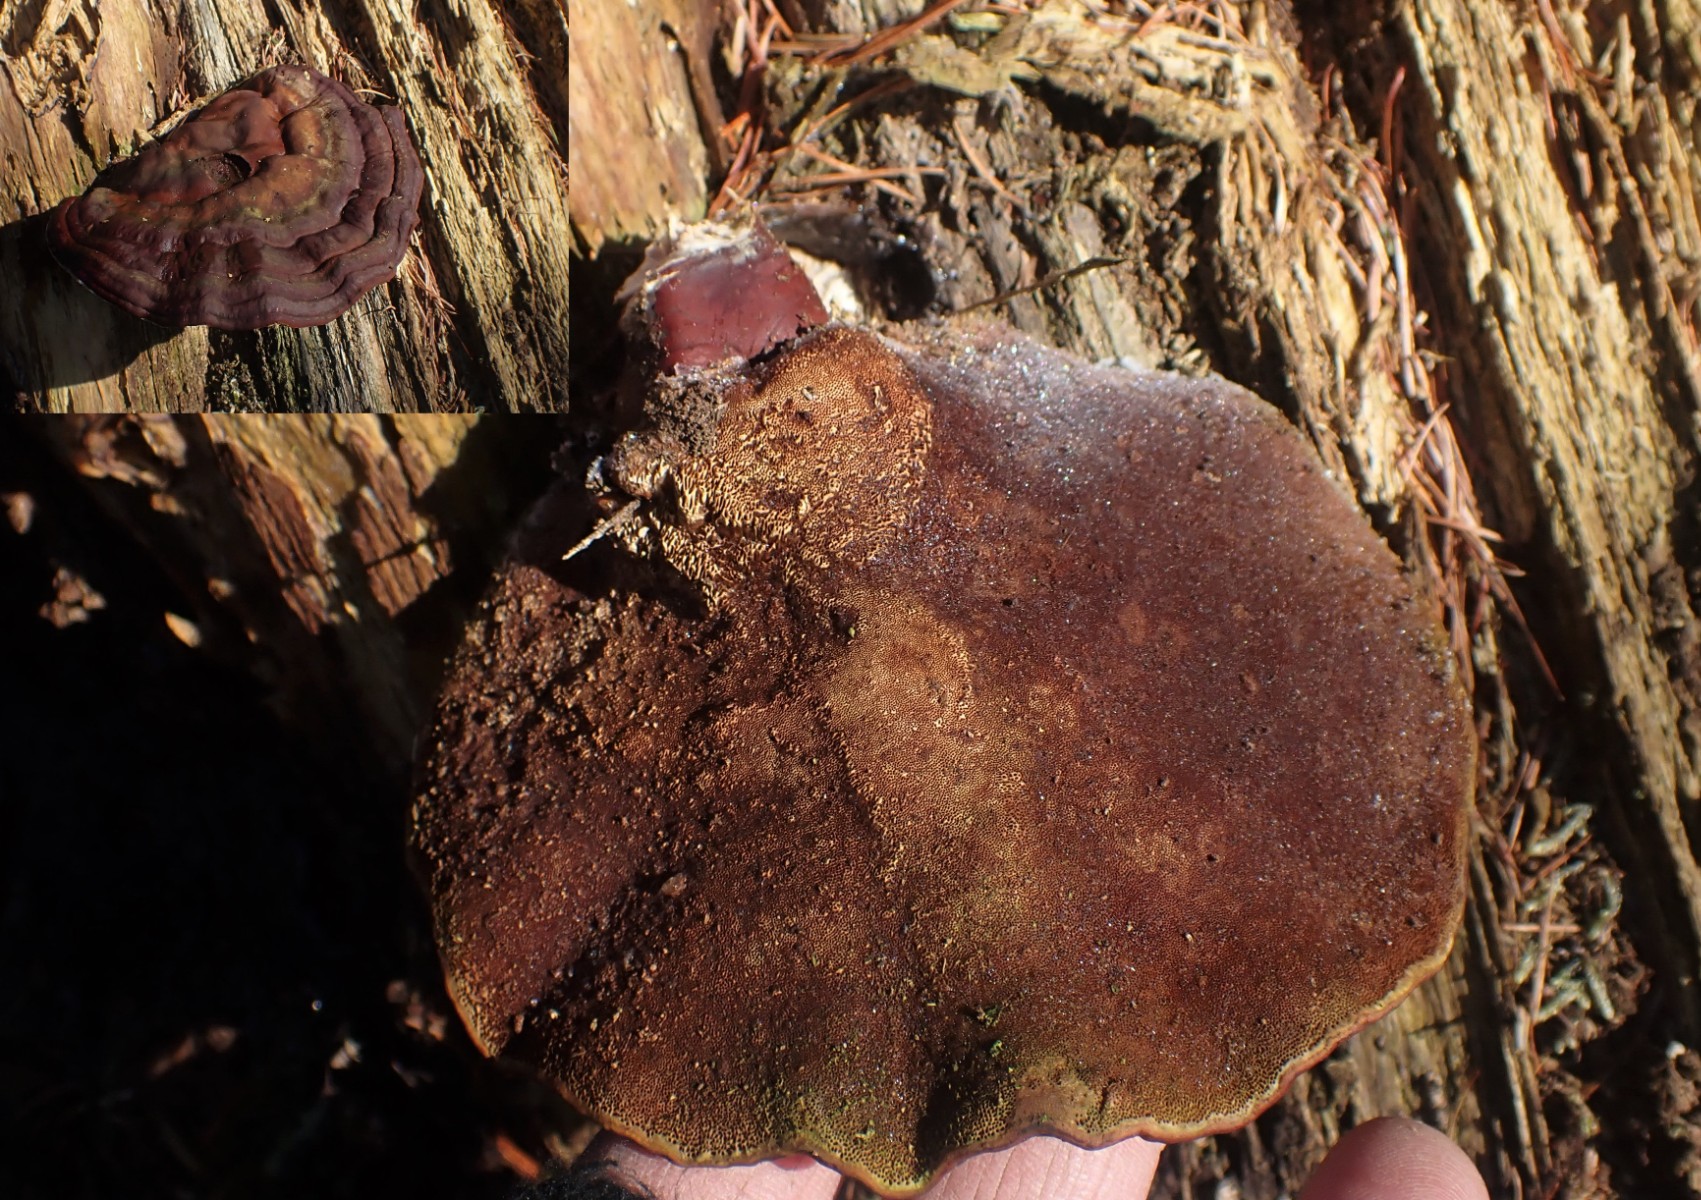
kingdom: Fungi
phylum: Basidiomycota
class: Agaricomycetes
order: Polyporales
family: Polyporaceae
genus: Ganoderma
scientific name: Ganoderma lucidum
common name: skinnende lakporesvamp
